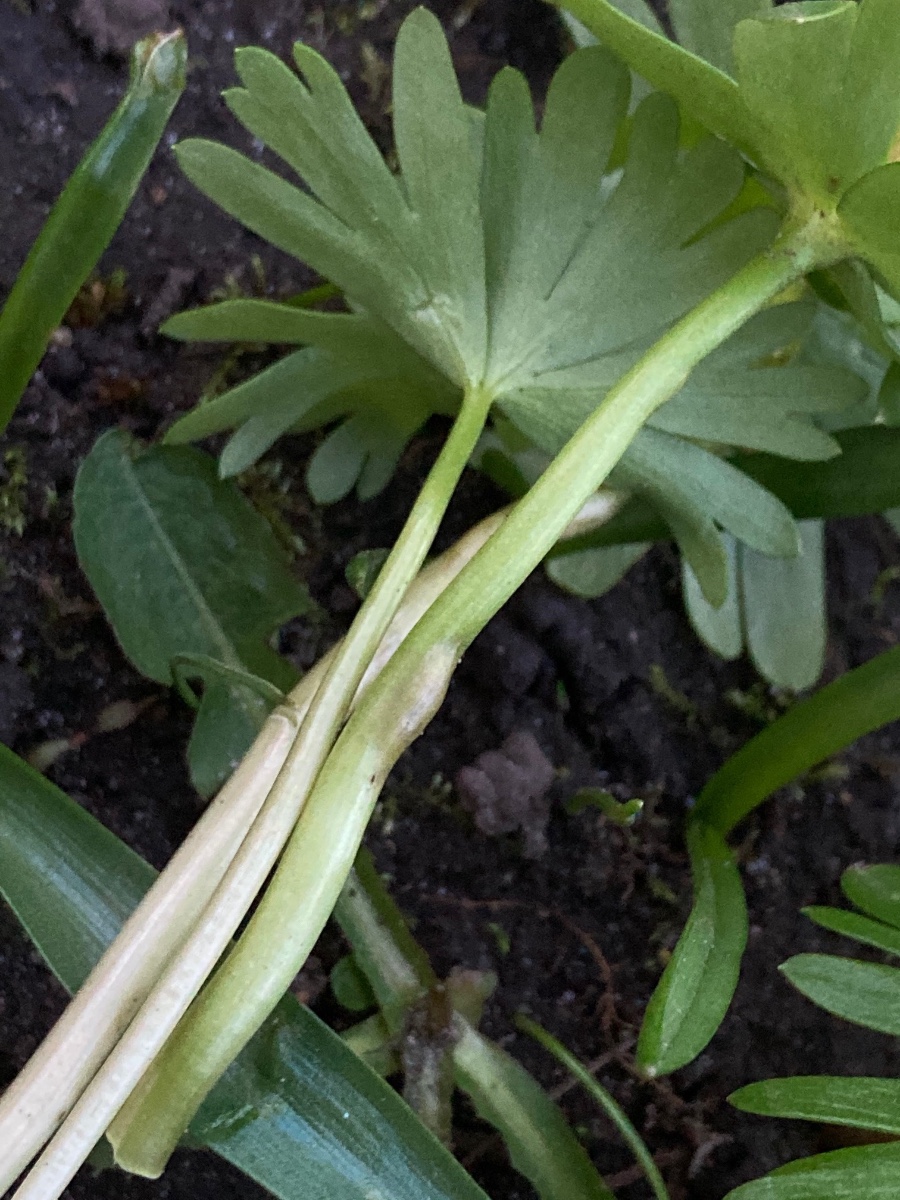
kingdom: Fungi
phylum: Basidiomycota
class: Ustilaginomycetes
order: Urocystidales
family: Urocystidaceae
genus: Urocystis
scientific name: Urocystis eranthidis
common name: erantis-brand
